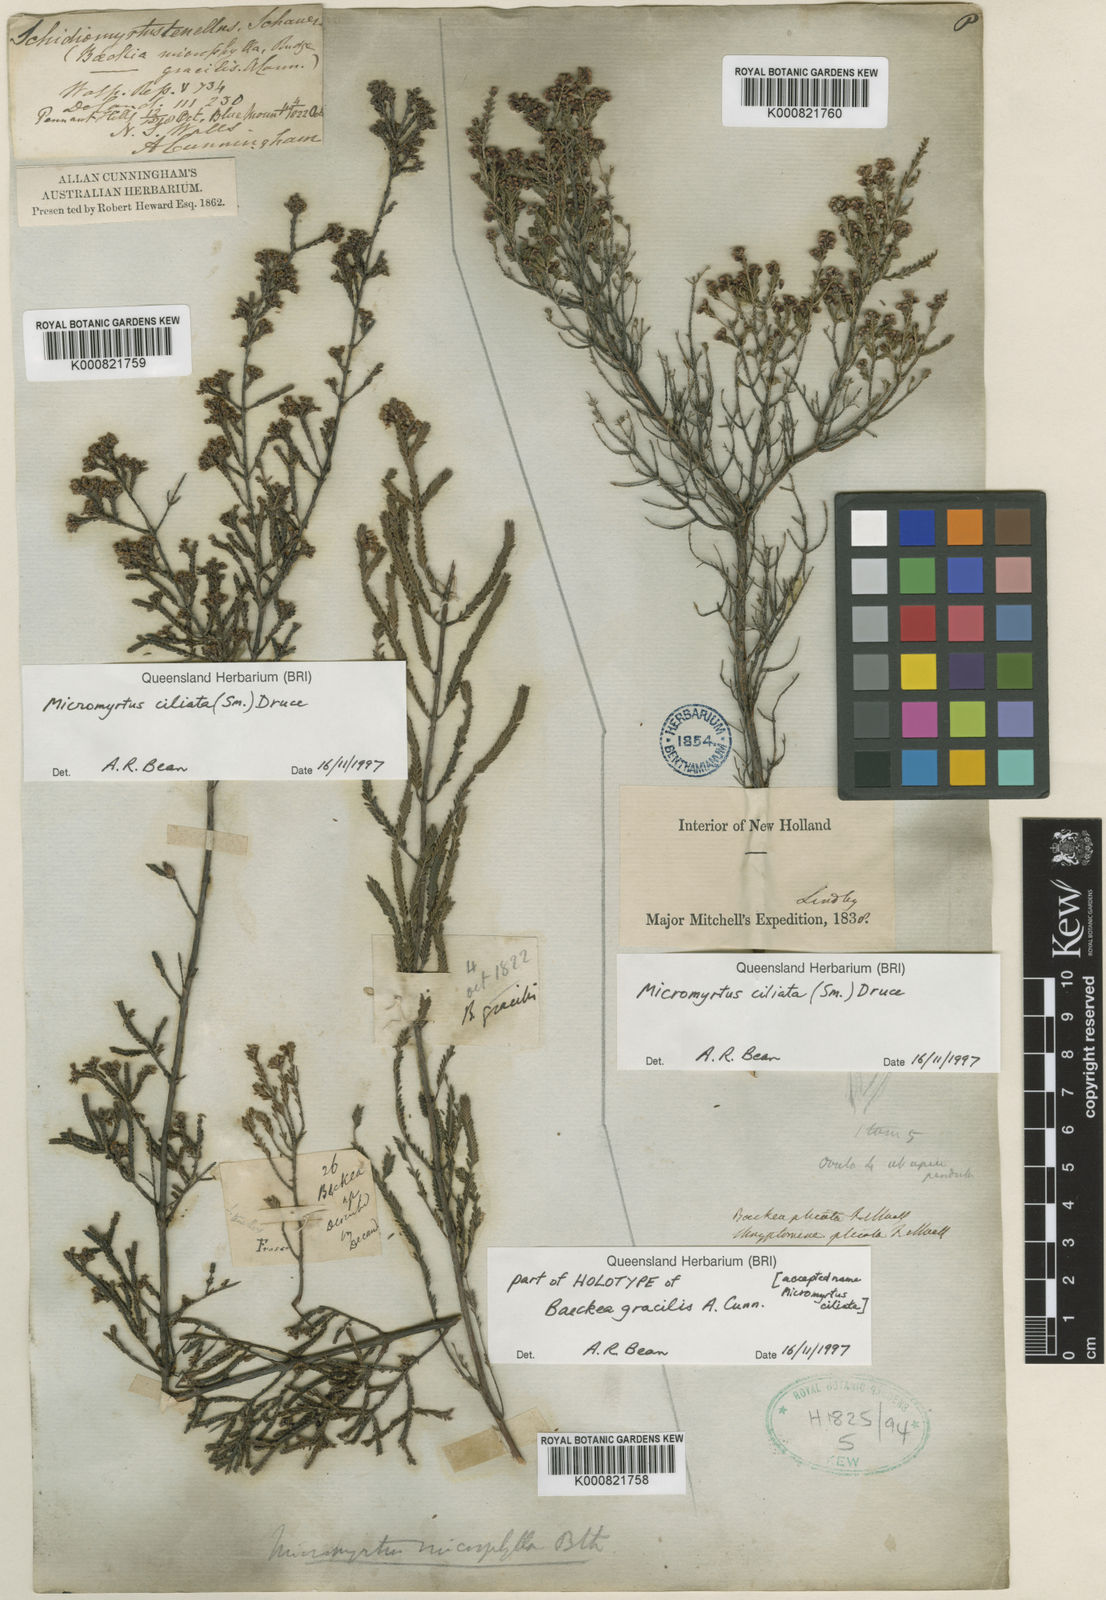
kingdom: Plantae
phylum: Tracheophyta
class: Magnoliopsida
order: Myrtales
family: Myrtaceae
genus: Micromyrtus
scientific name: Micromyrtus ciliata
